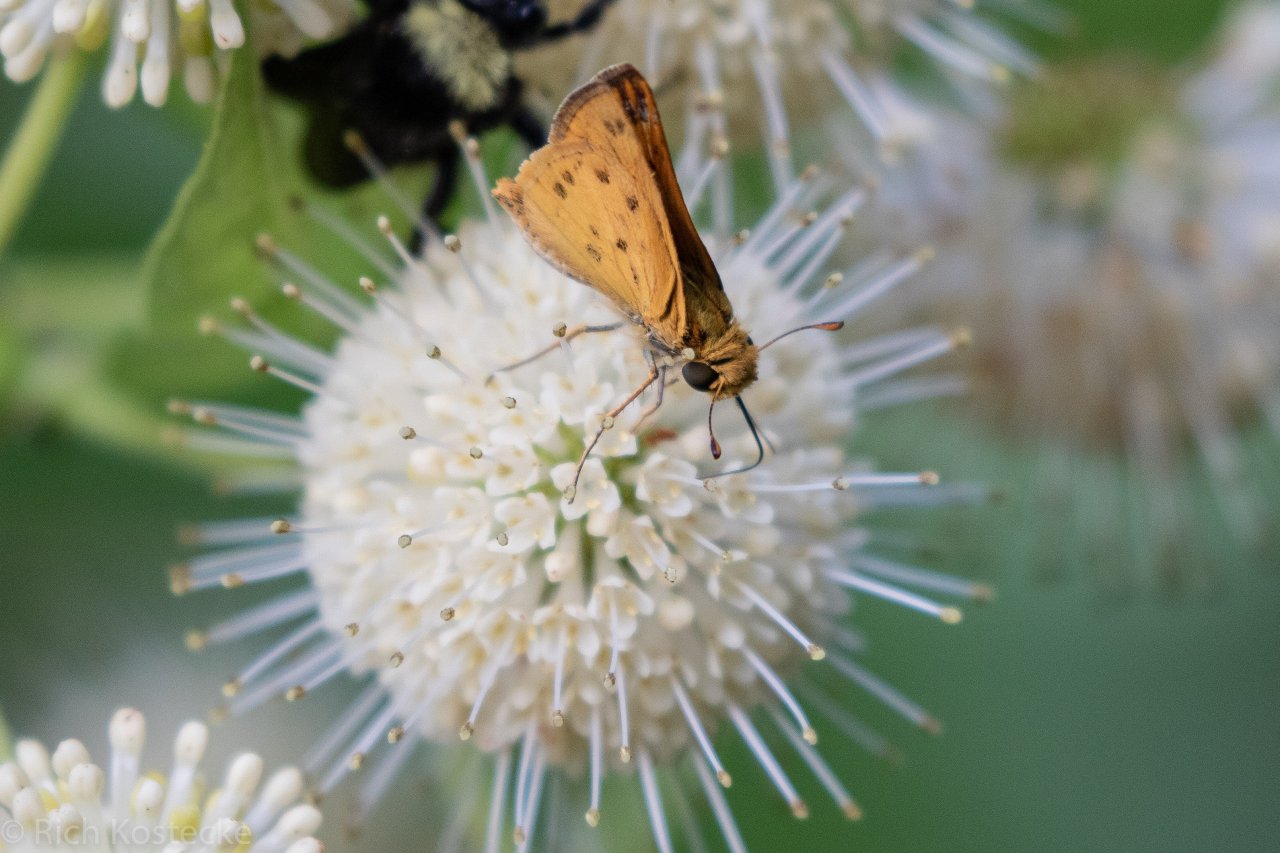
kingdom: Animalia
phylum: Arthropoda
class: Insecta
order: Lepidoptera
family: Hesperiidae
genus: Hylephila
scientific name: Hylephila phyleus
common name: Fiery Skipper
